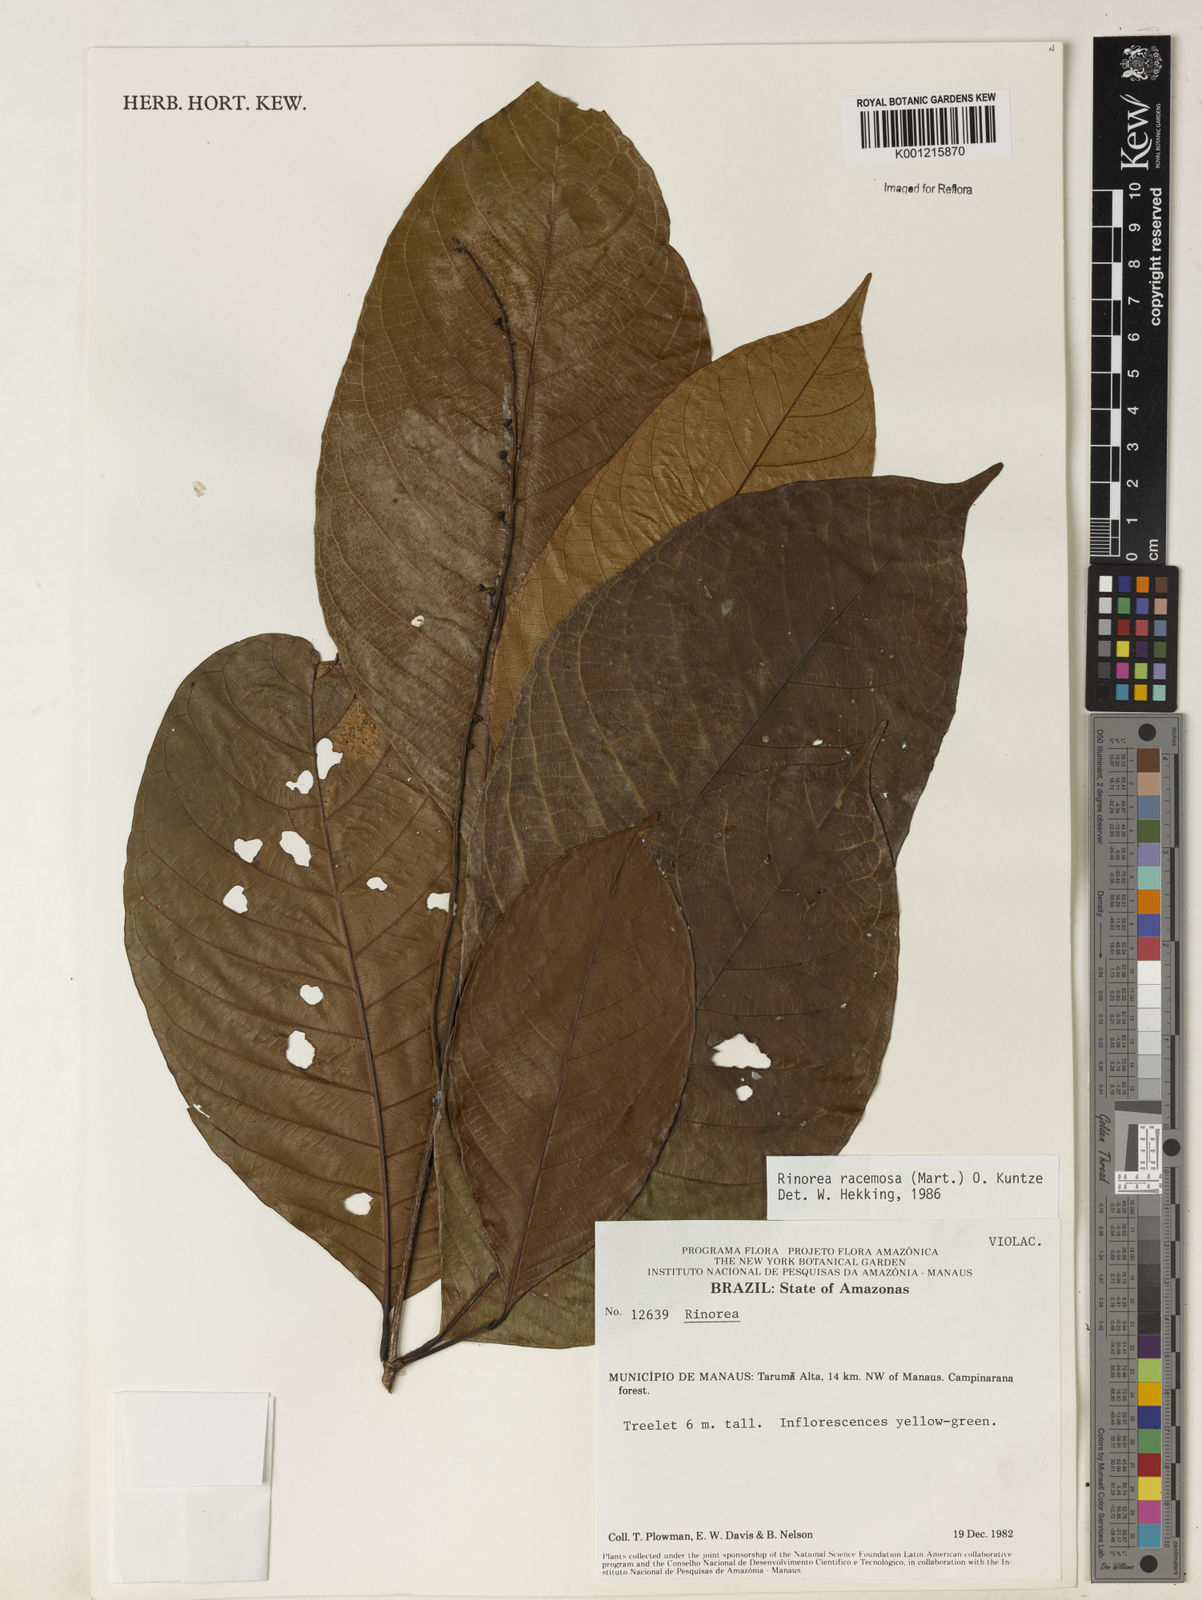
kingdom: Plantae
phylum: Tracheophyta
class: Magnoliopsida
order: Malpighiales
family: Violaceae
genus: Rinorea
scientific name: Rinorea racemosa
